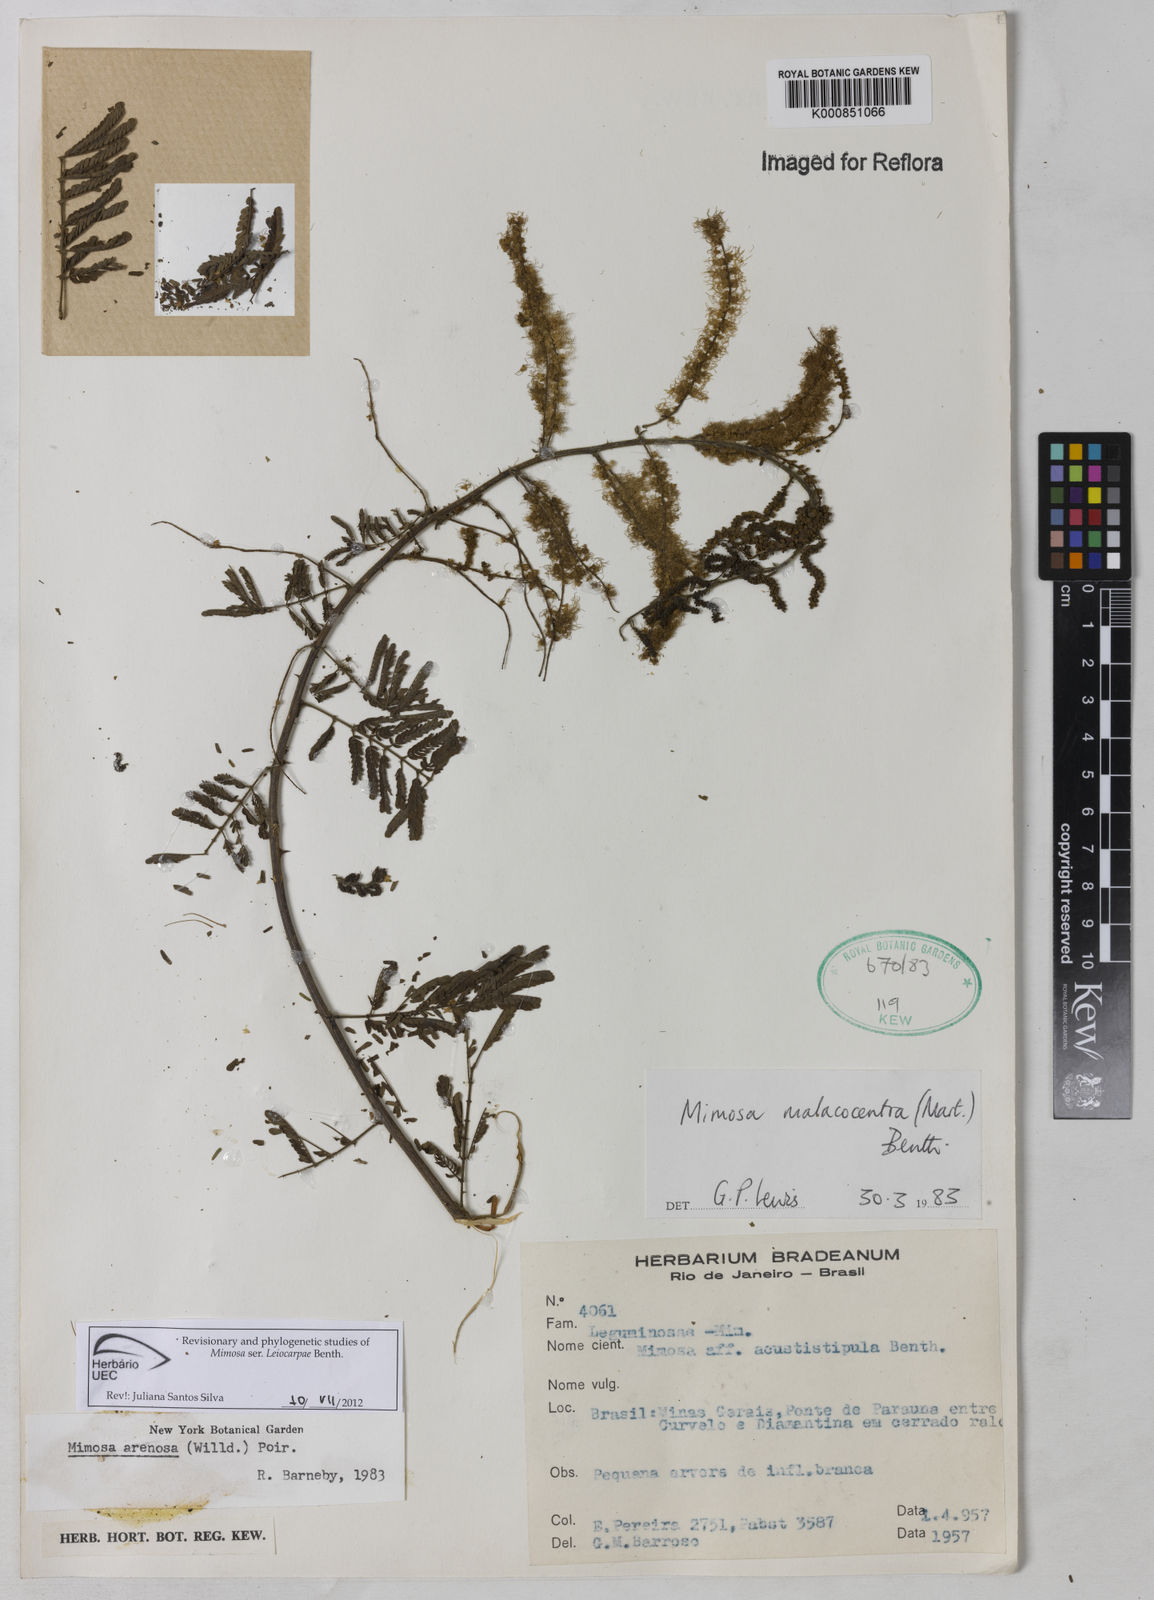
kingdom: Plantae
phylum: Tracheophyta
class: Magnoliopsida
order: Fabales
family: Fabaceae
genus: Mimosa
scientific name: Mimosa arenosa
